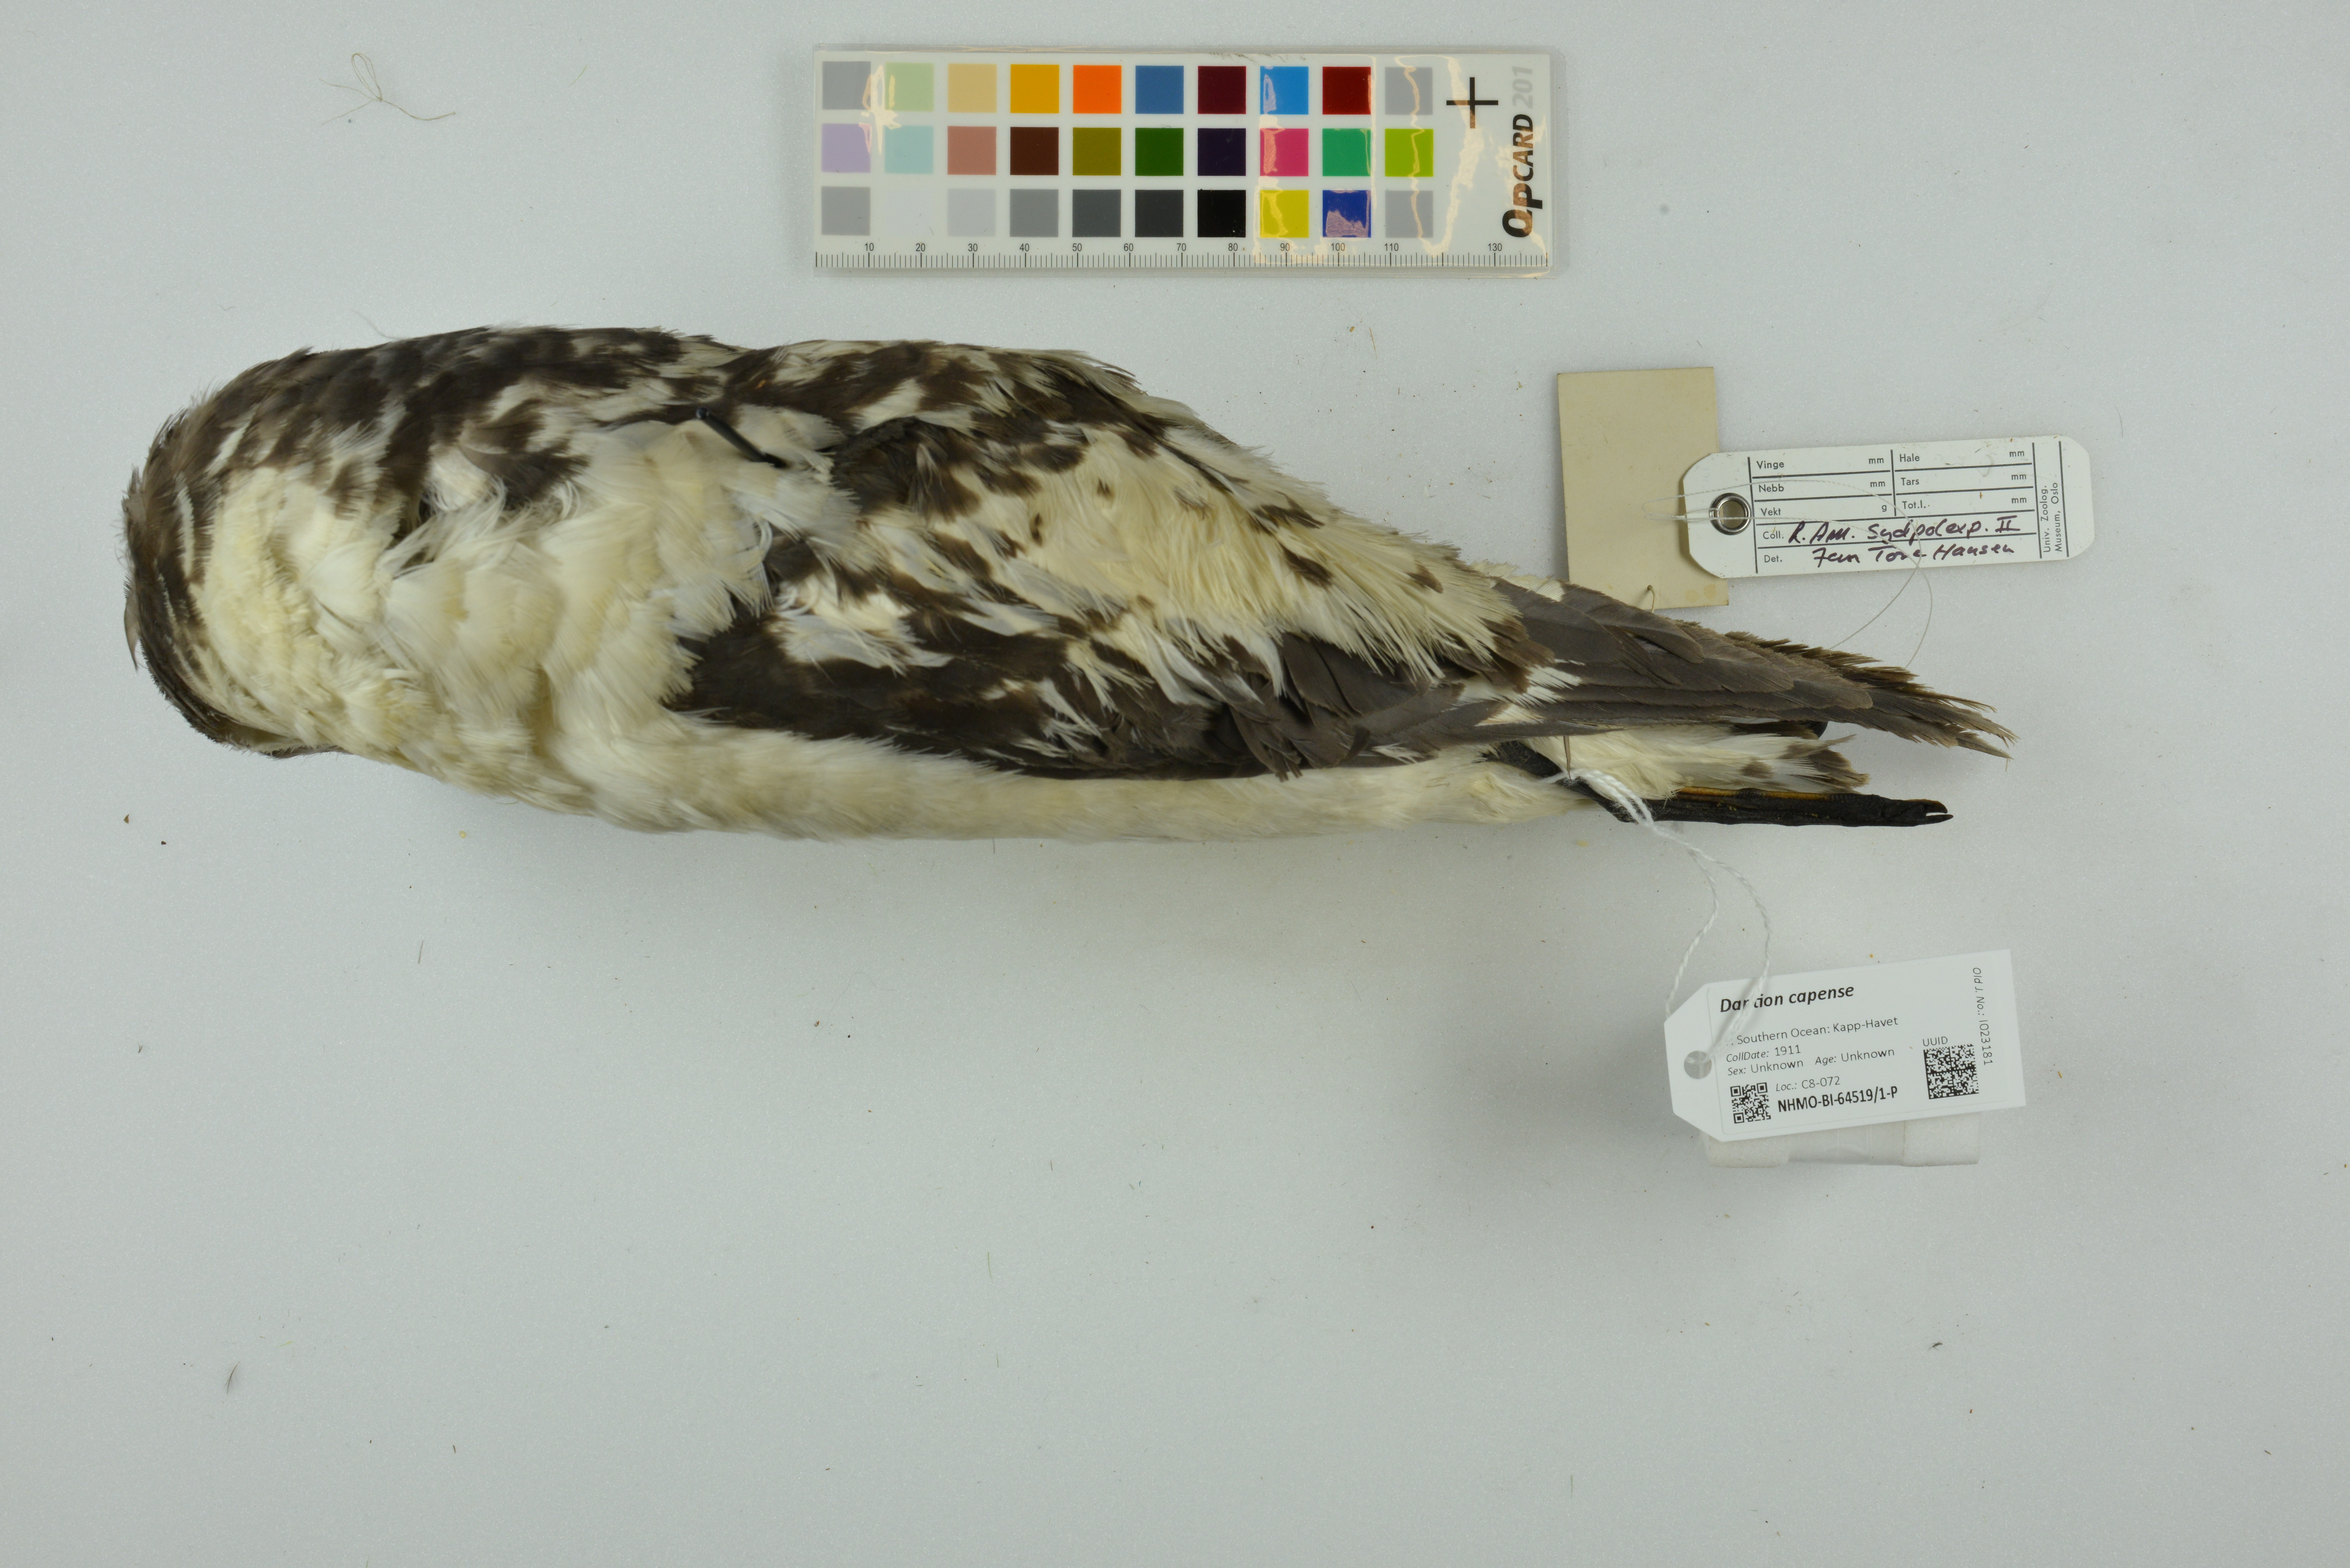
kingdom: Animalia
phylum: Chordata
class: Aves
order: Procellariiformes
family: Procellariidae
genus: Daption
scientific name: Daption capense
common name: Cape petrel
